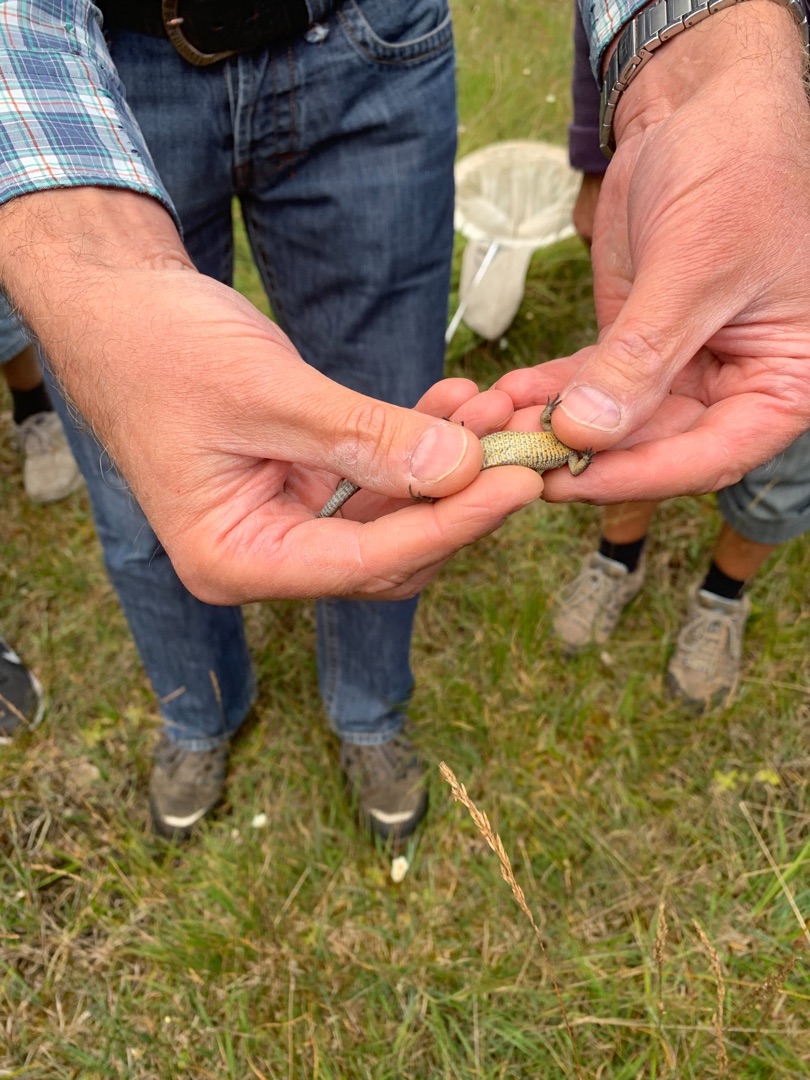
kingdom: Animalia
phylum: Chordata
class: Squamata
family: Lacertidae
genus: Zootoca
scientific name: Zootoca vivipara
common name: Skovfirben
